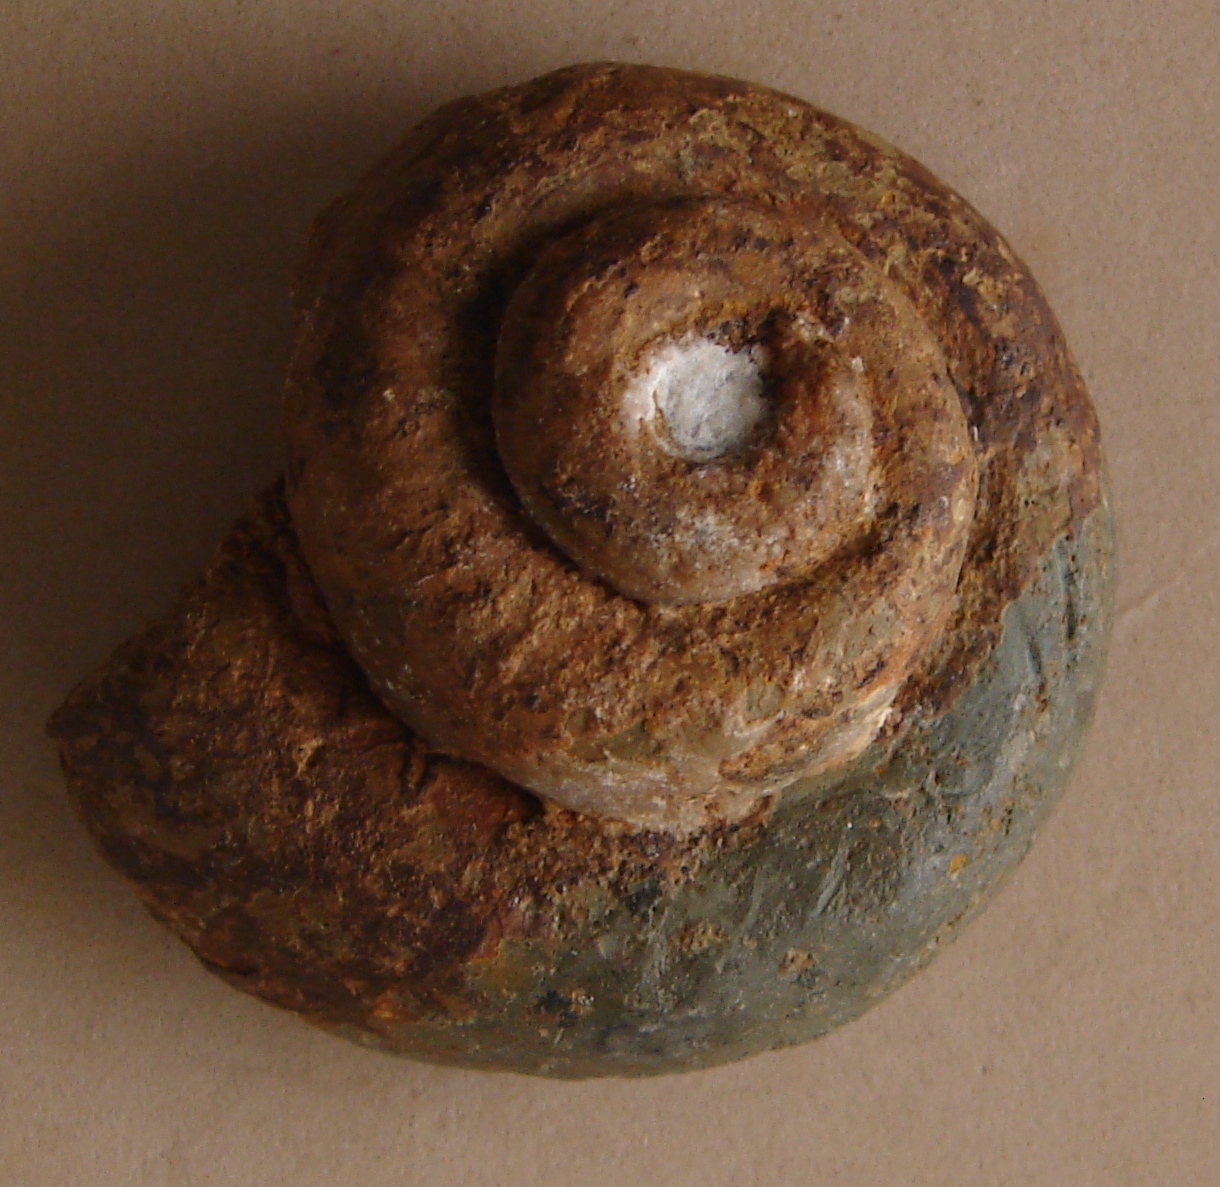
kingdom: Animalia
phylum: Mollusca
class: Gastropoda
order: Pleurotomariida
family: Pleurotomariidae
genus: Pleurotomaria
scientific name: Pleurotomaria
